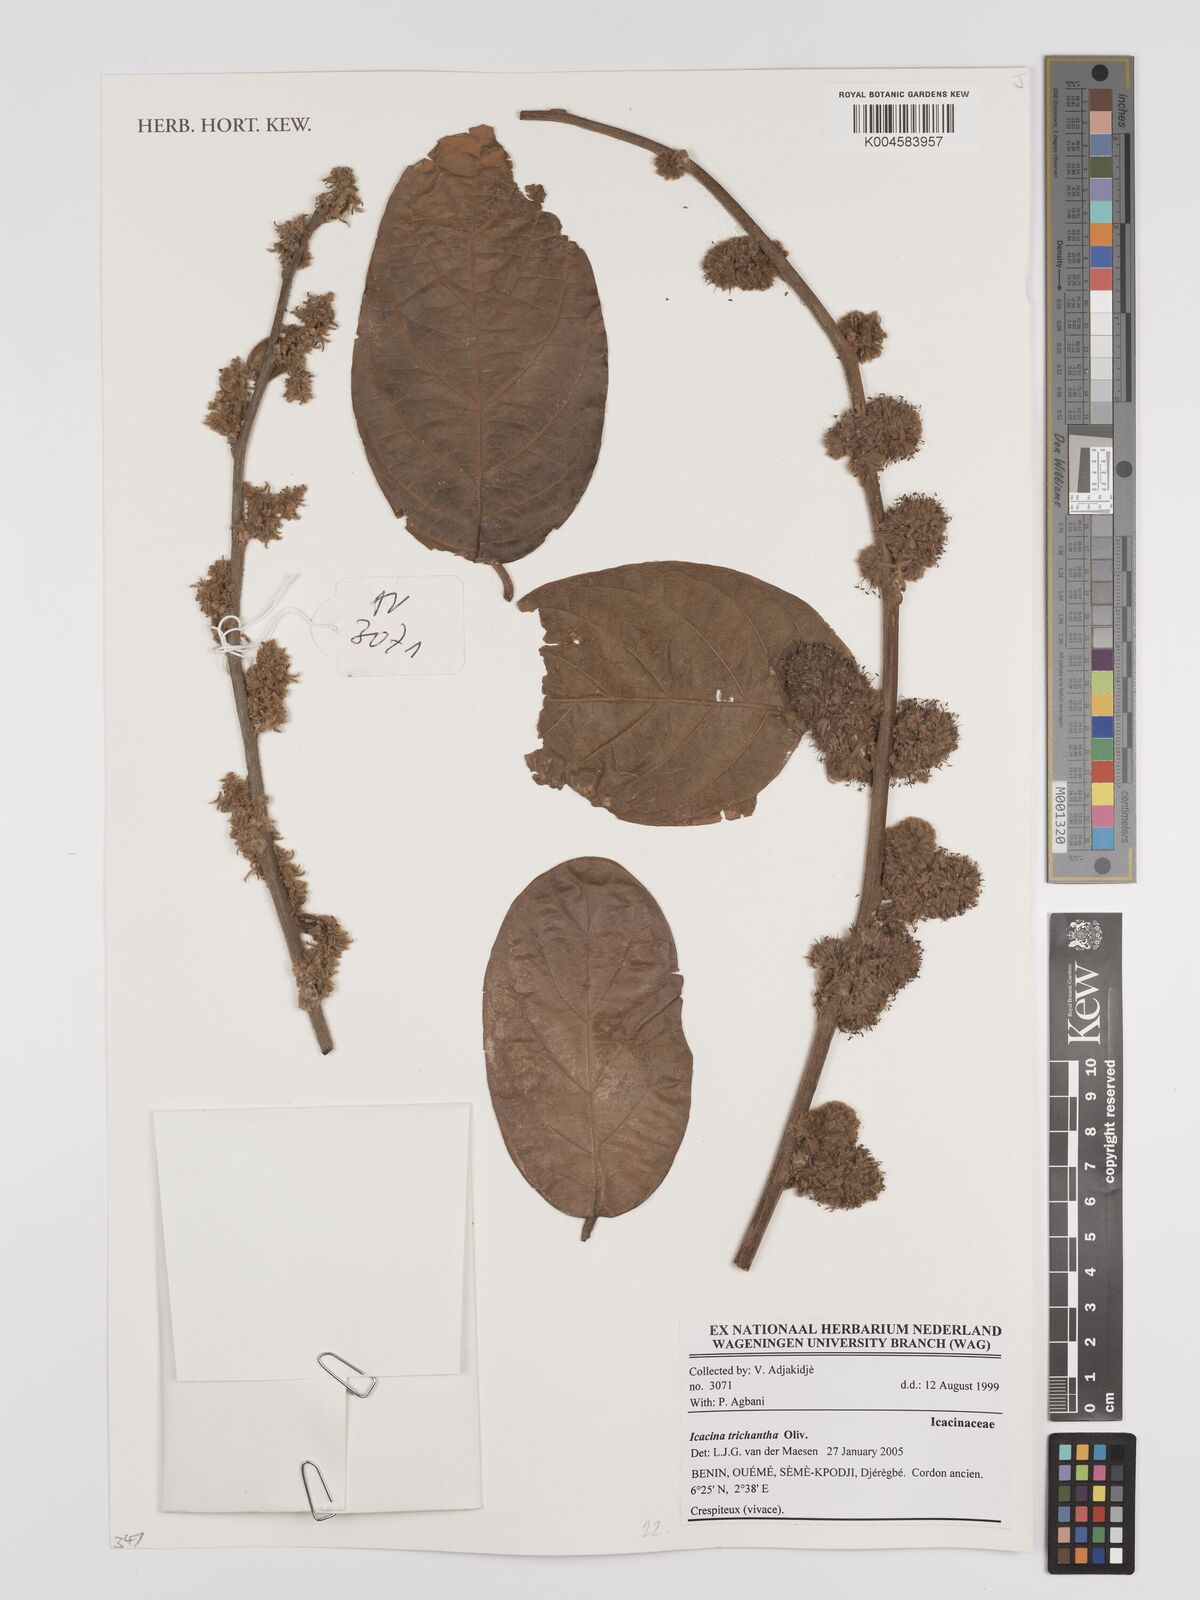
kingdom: Plantae
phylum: Tracheophyta
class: Magnoliopsida
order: Icacinales
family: Icacinaceae
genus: Icacina
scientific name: Icacina trichantha
